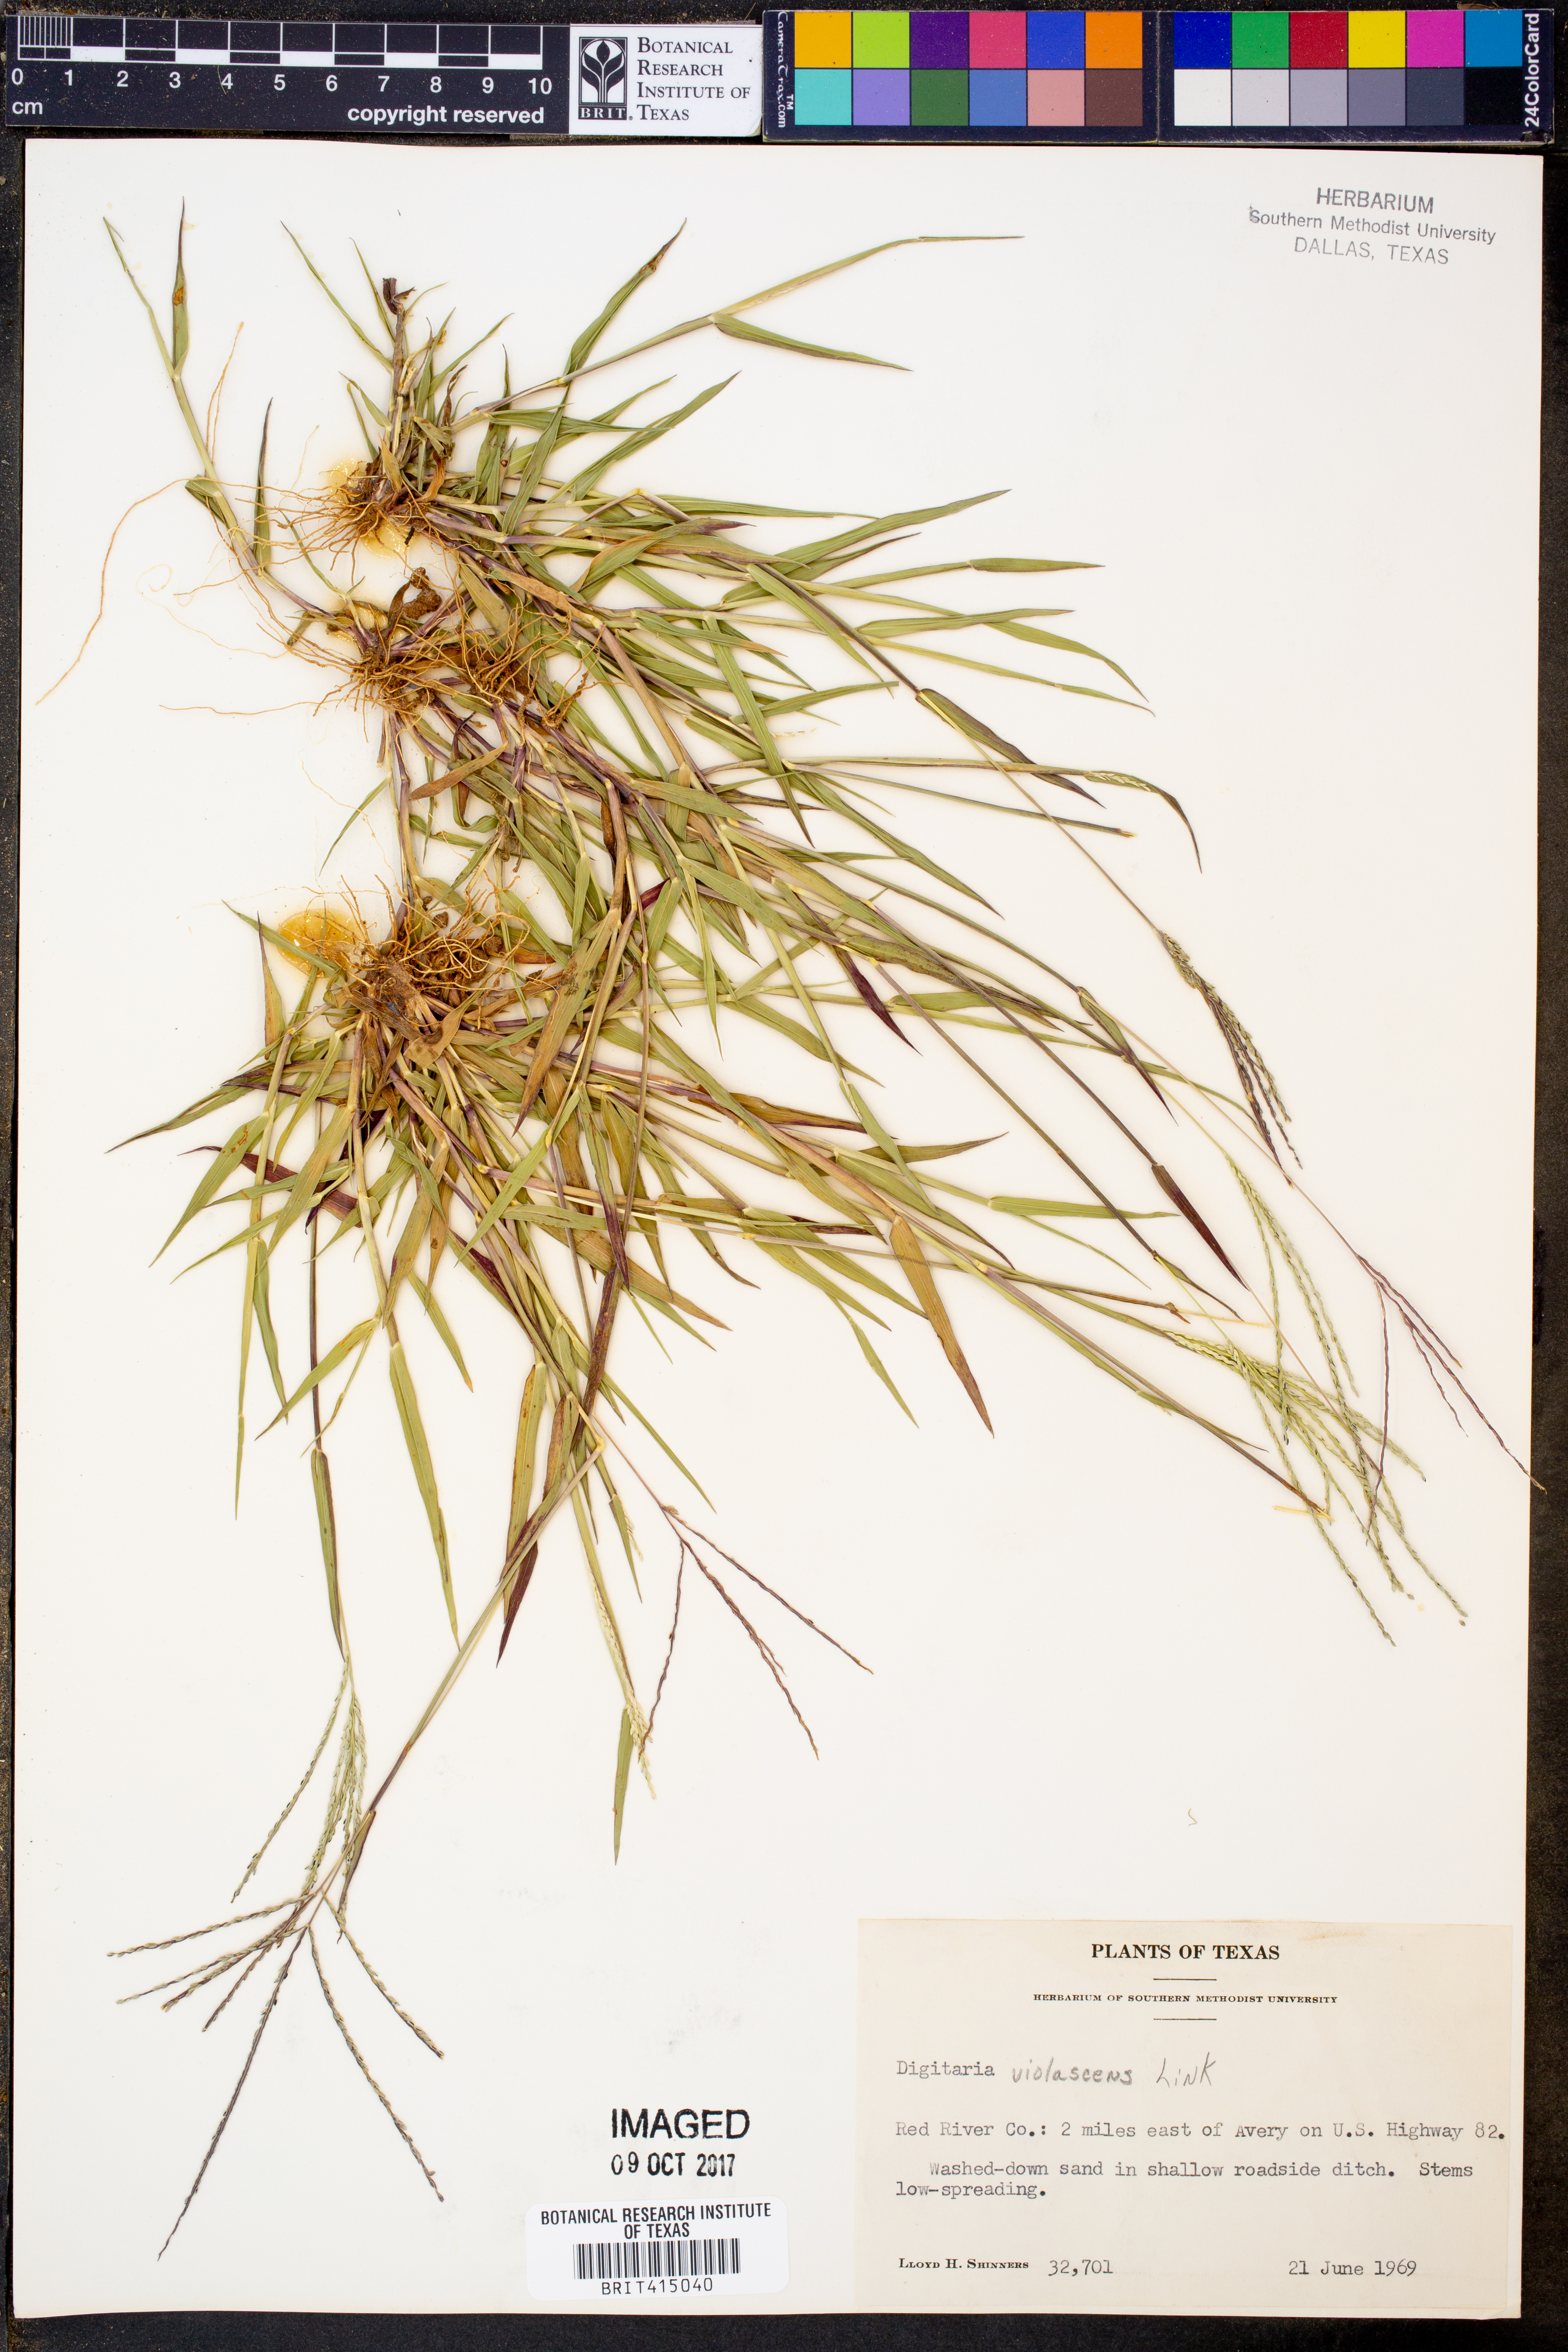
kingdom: Plantae
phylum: Tracheophyta
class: Liliopsida
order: Poales
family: Poaceae
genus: Digitaria
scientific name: Digitaria violascens
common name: Violet crabgrass
